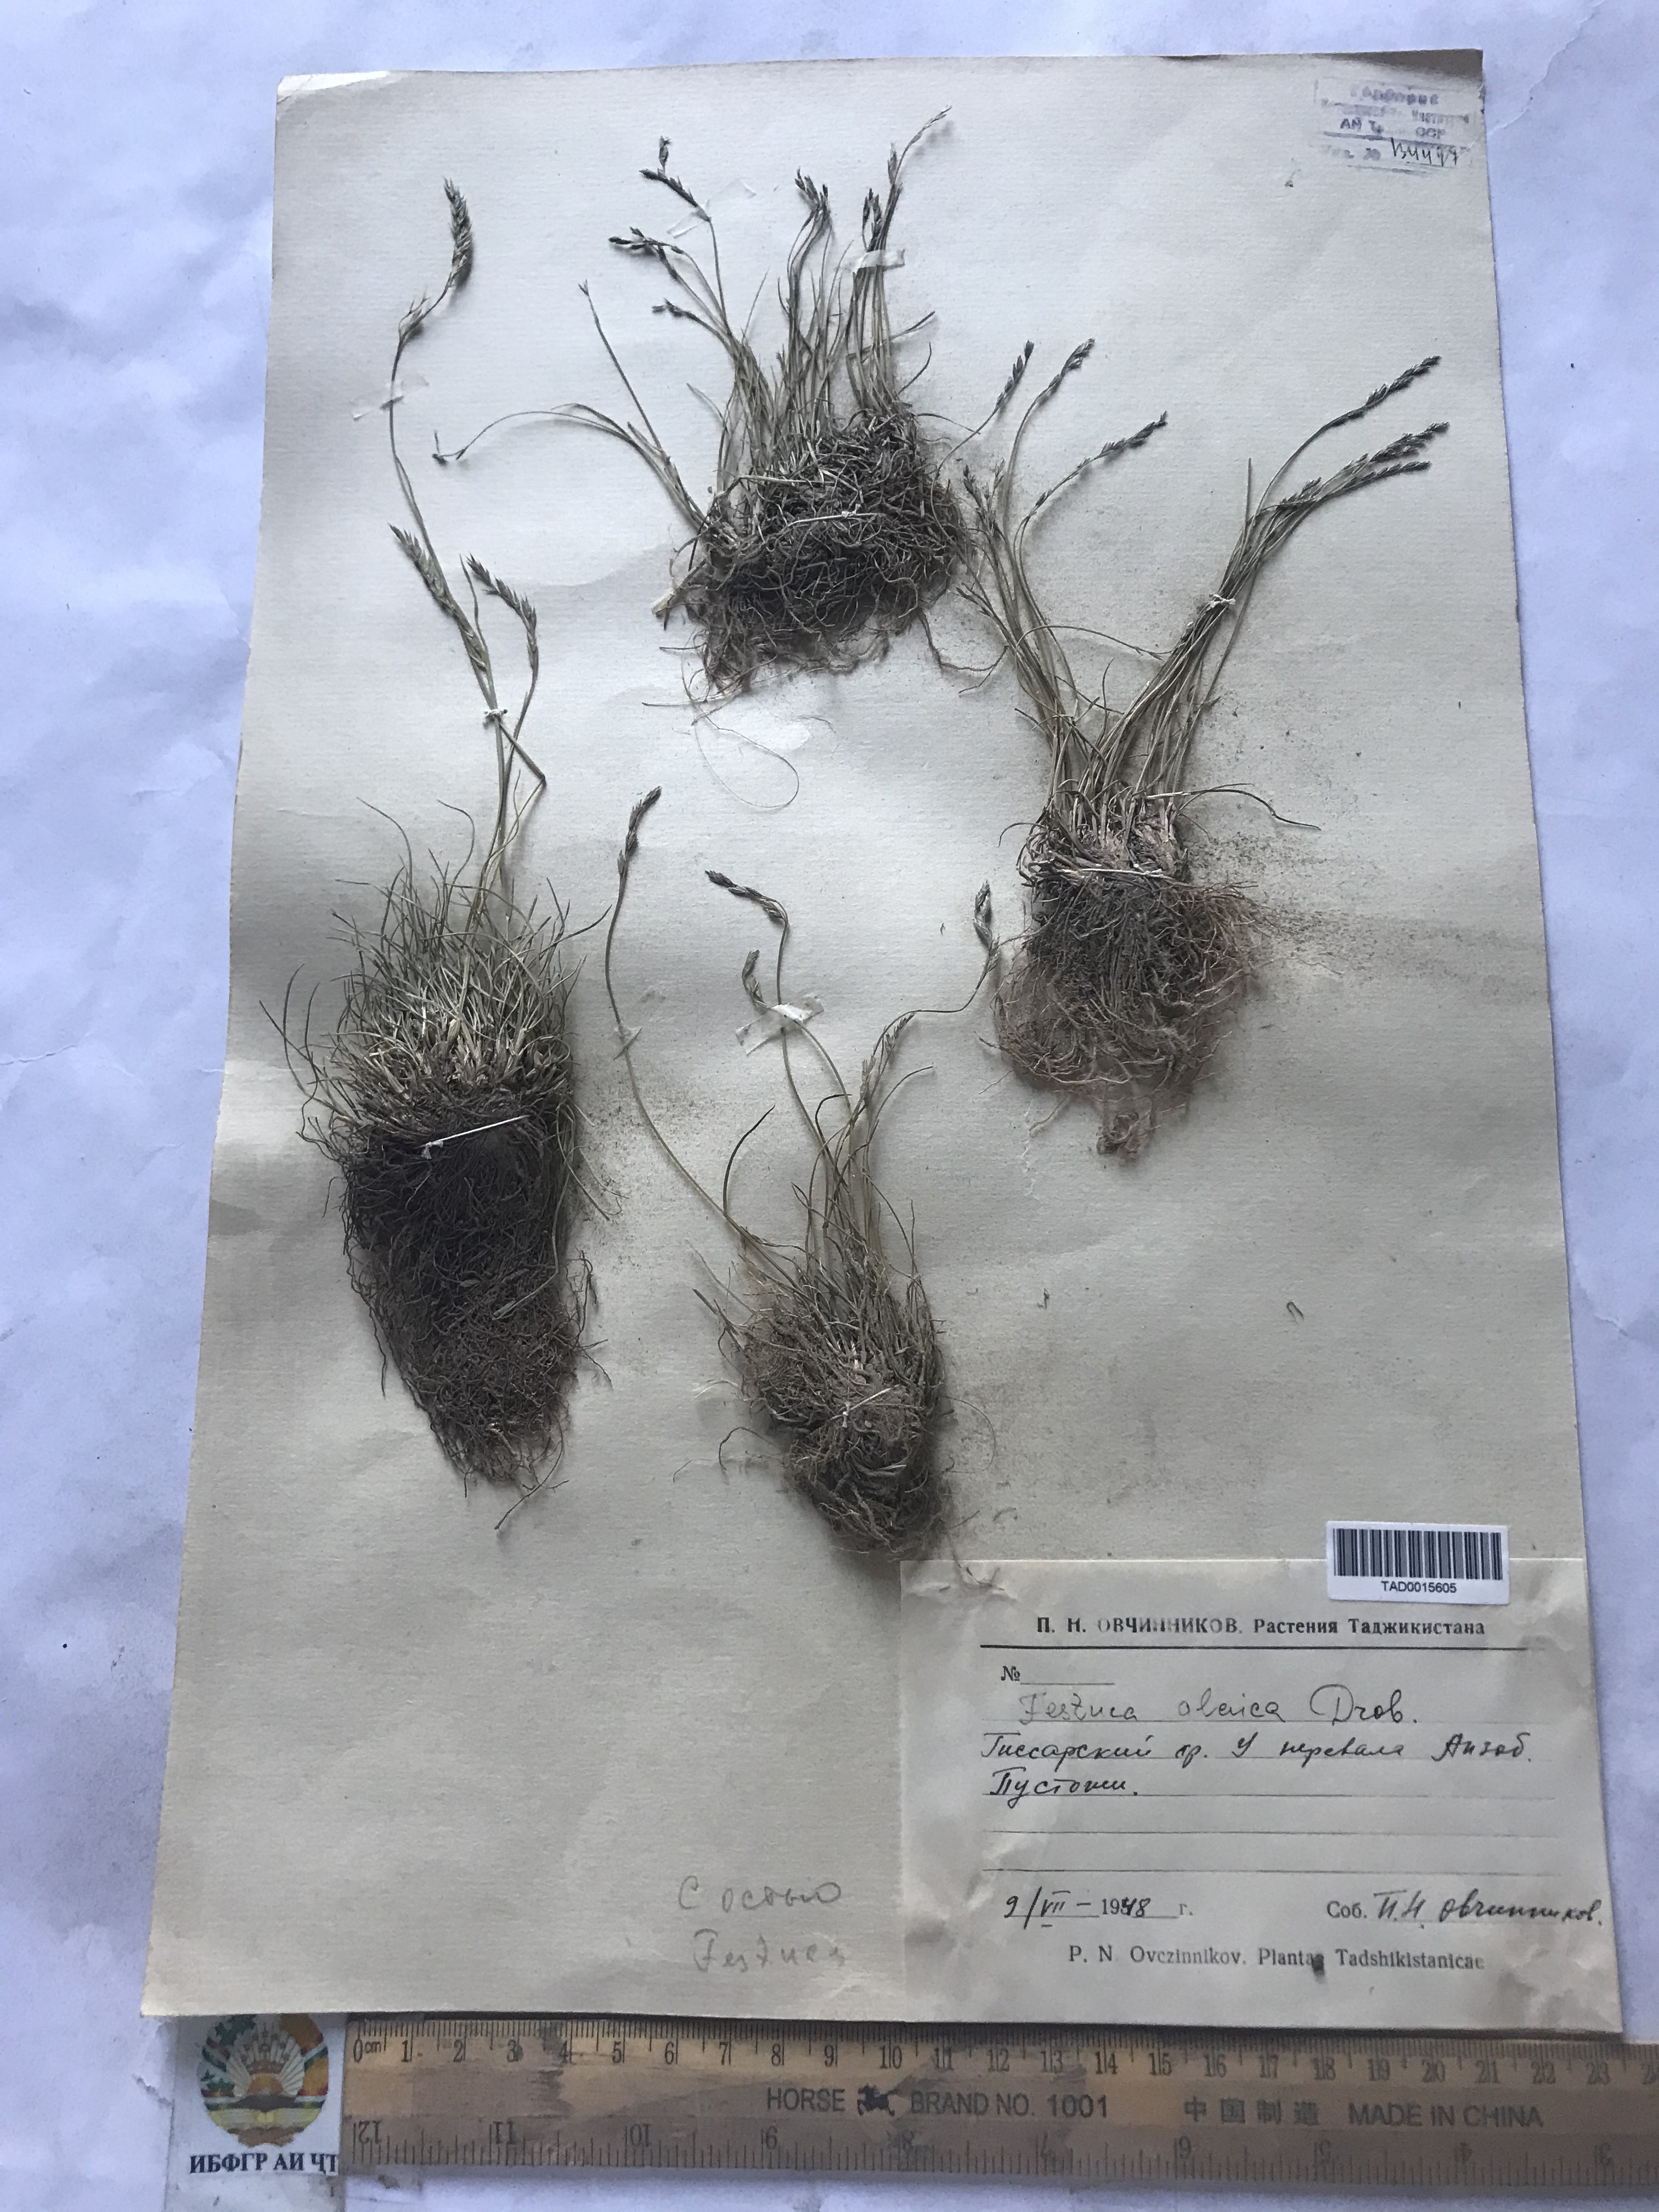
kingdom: Plantae
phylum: Tracheophyta
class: Liliopsida
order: Poales
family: Poaceae
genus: Festuca
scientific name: Festuca alaica
